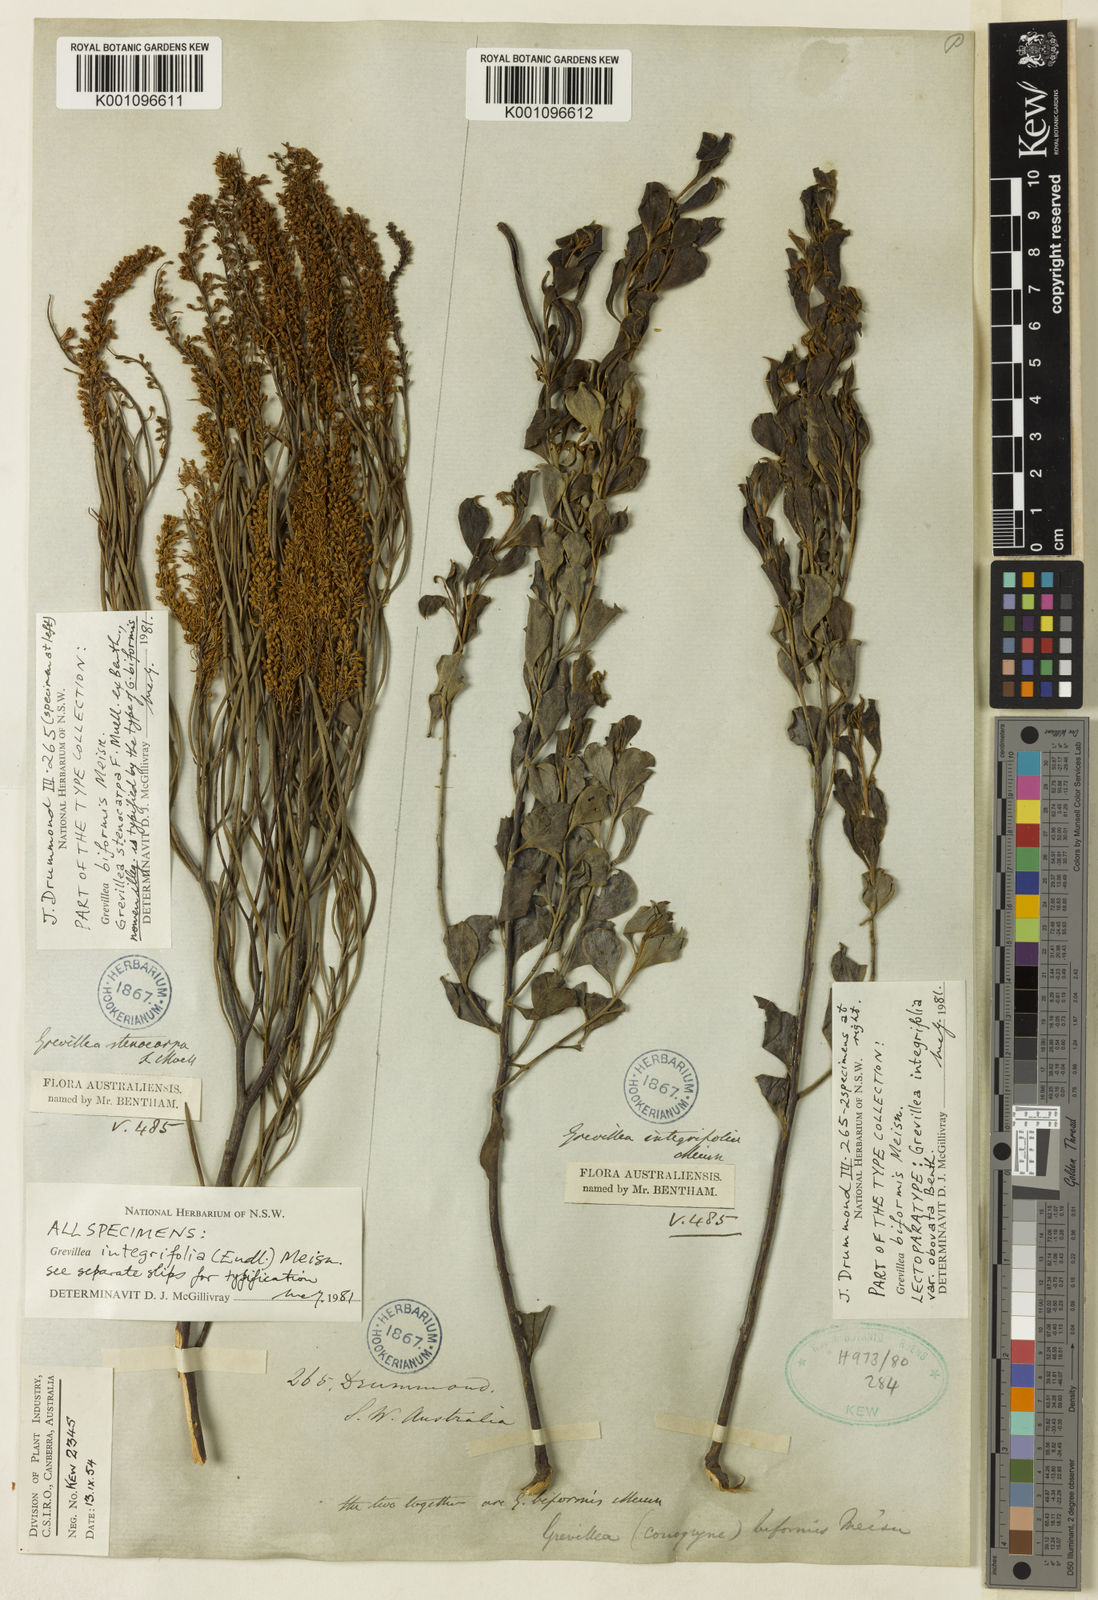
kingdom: Plantae
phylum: Tracheophyta
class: Magnoliopsida
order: Proteales
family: Proteaceae
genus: Grevillea
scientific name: Grevillea biformis
